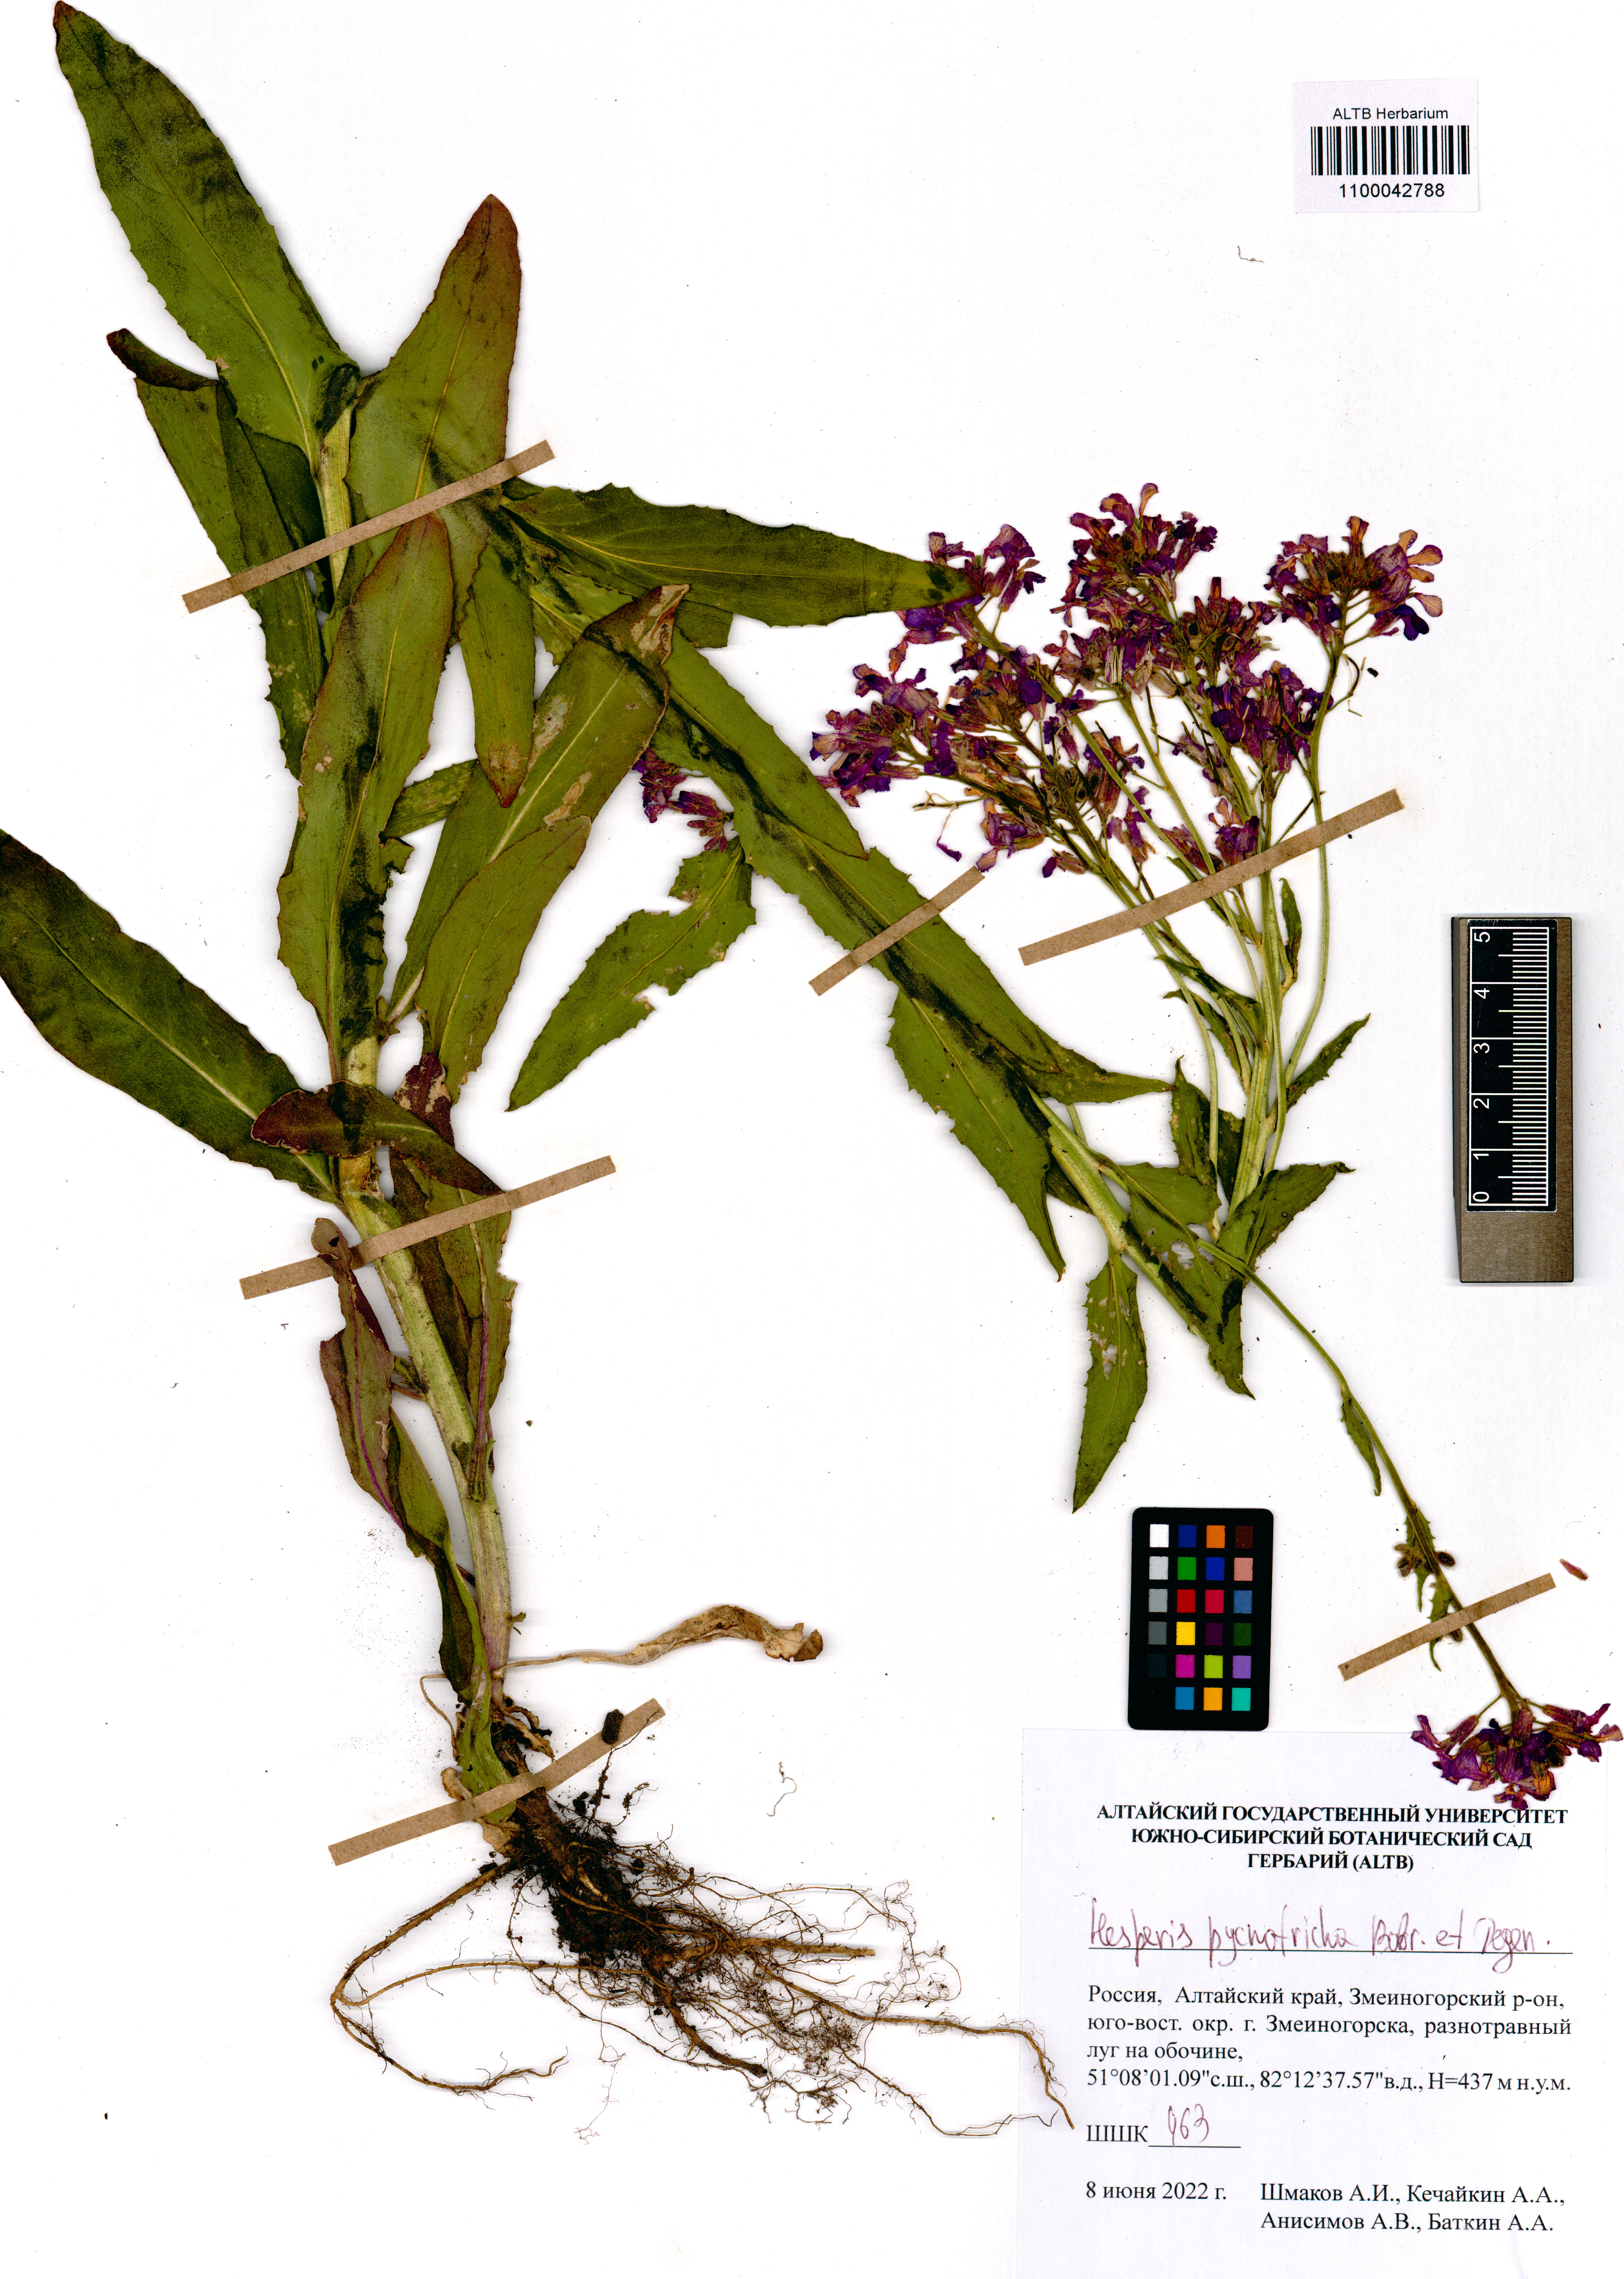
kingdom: Plantae
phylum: Tracheophyta
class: Magnoliopsida
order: Brassicales
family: Brassicaceae
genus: Hesperis
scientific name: Hesperis pycnotricha
